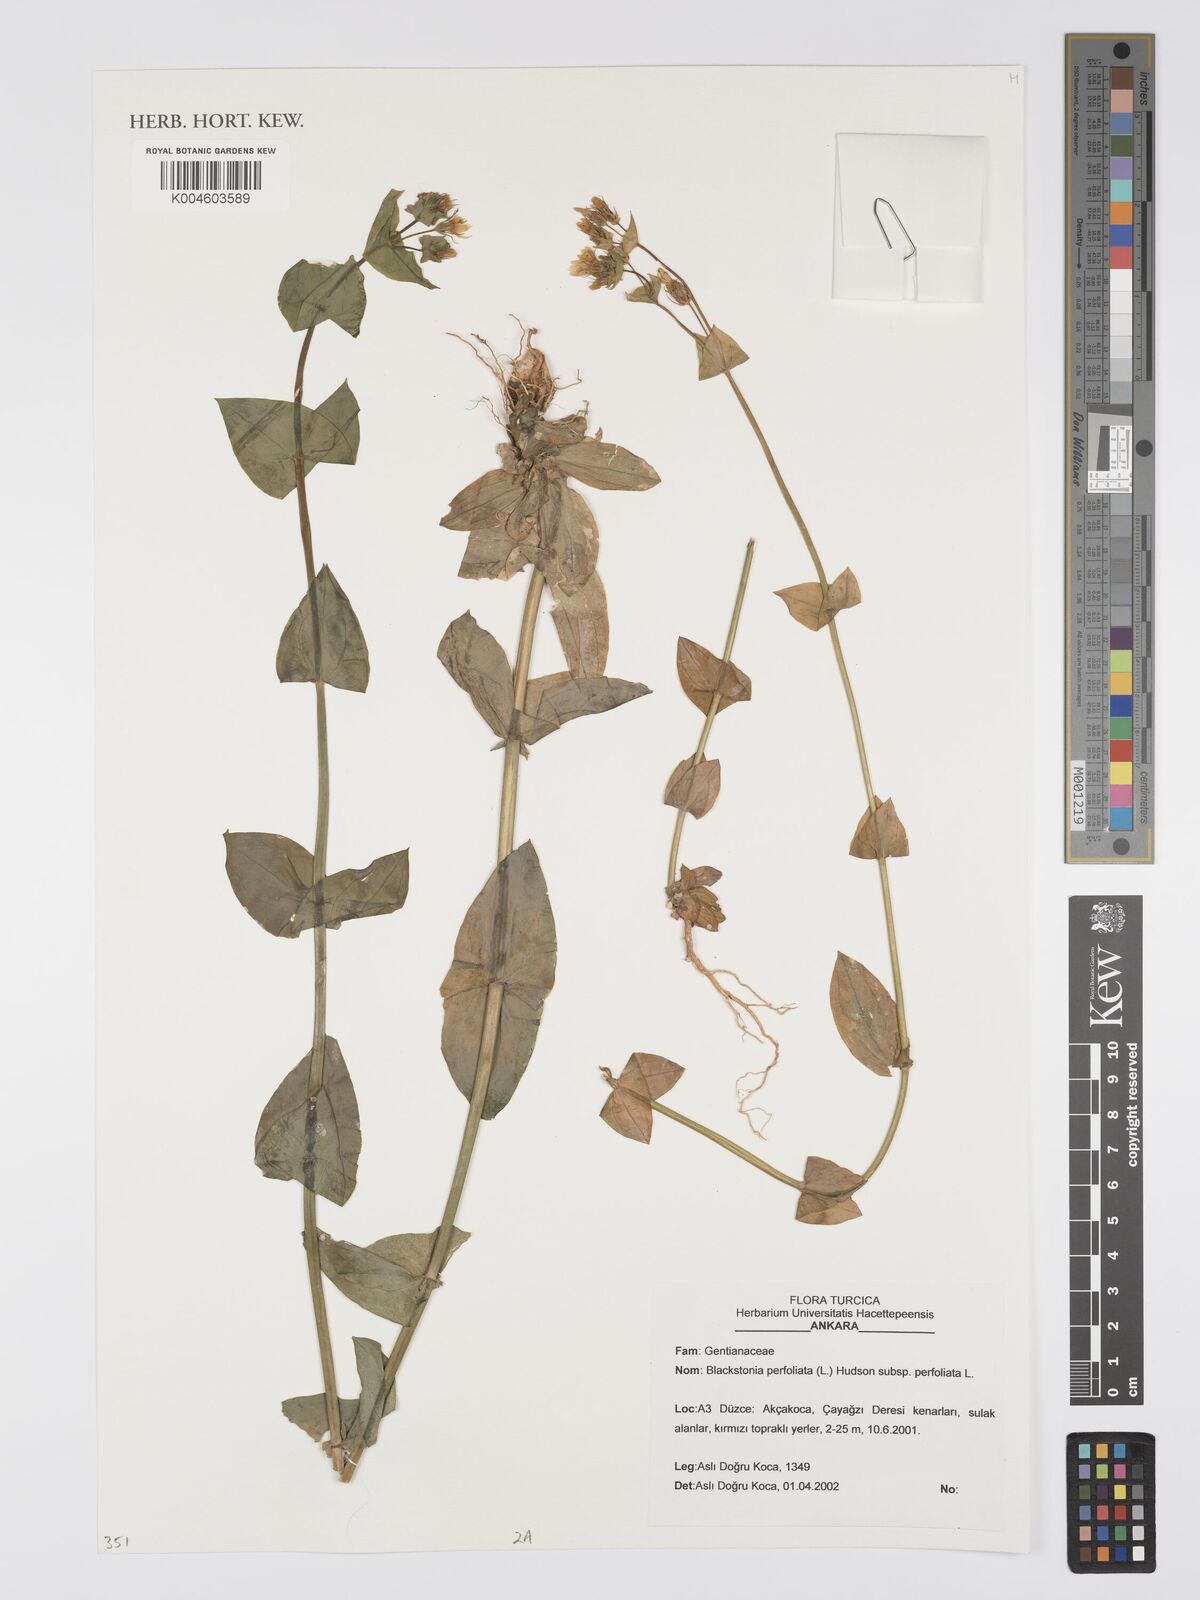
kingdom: Plantae
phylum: Tracheophyta
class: Magnoliopsida
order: Gentianales
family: Gentianaceae
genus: Blackstonia
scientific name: Blackstonia perfoliata
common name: Yellow-wort
